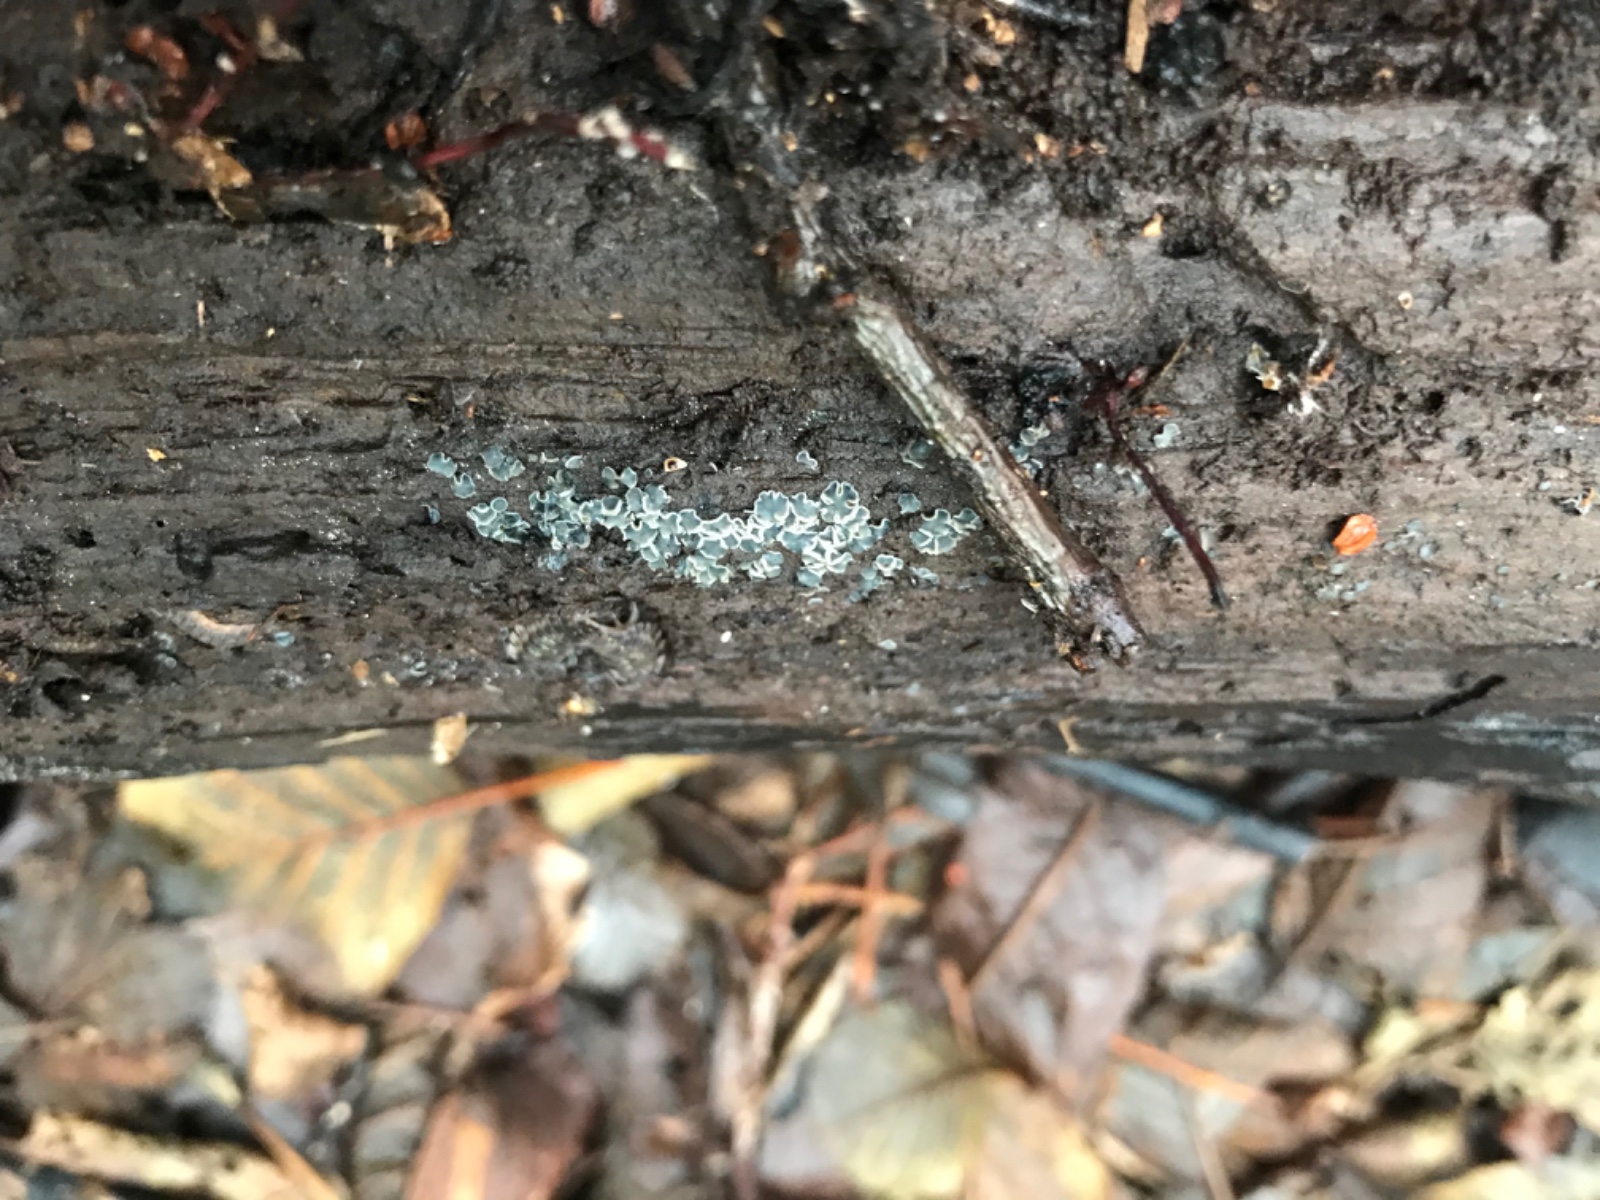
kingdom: Fungi
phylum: Ascomycota
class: Leotiomycetes
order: Helotiales
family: Mollisiaceae
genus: Mollisia
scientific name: Mollisia
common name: gråskive
